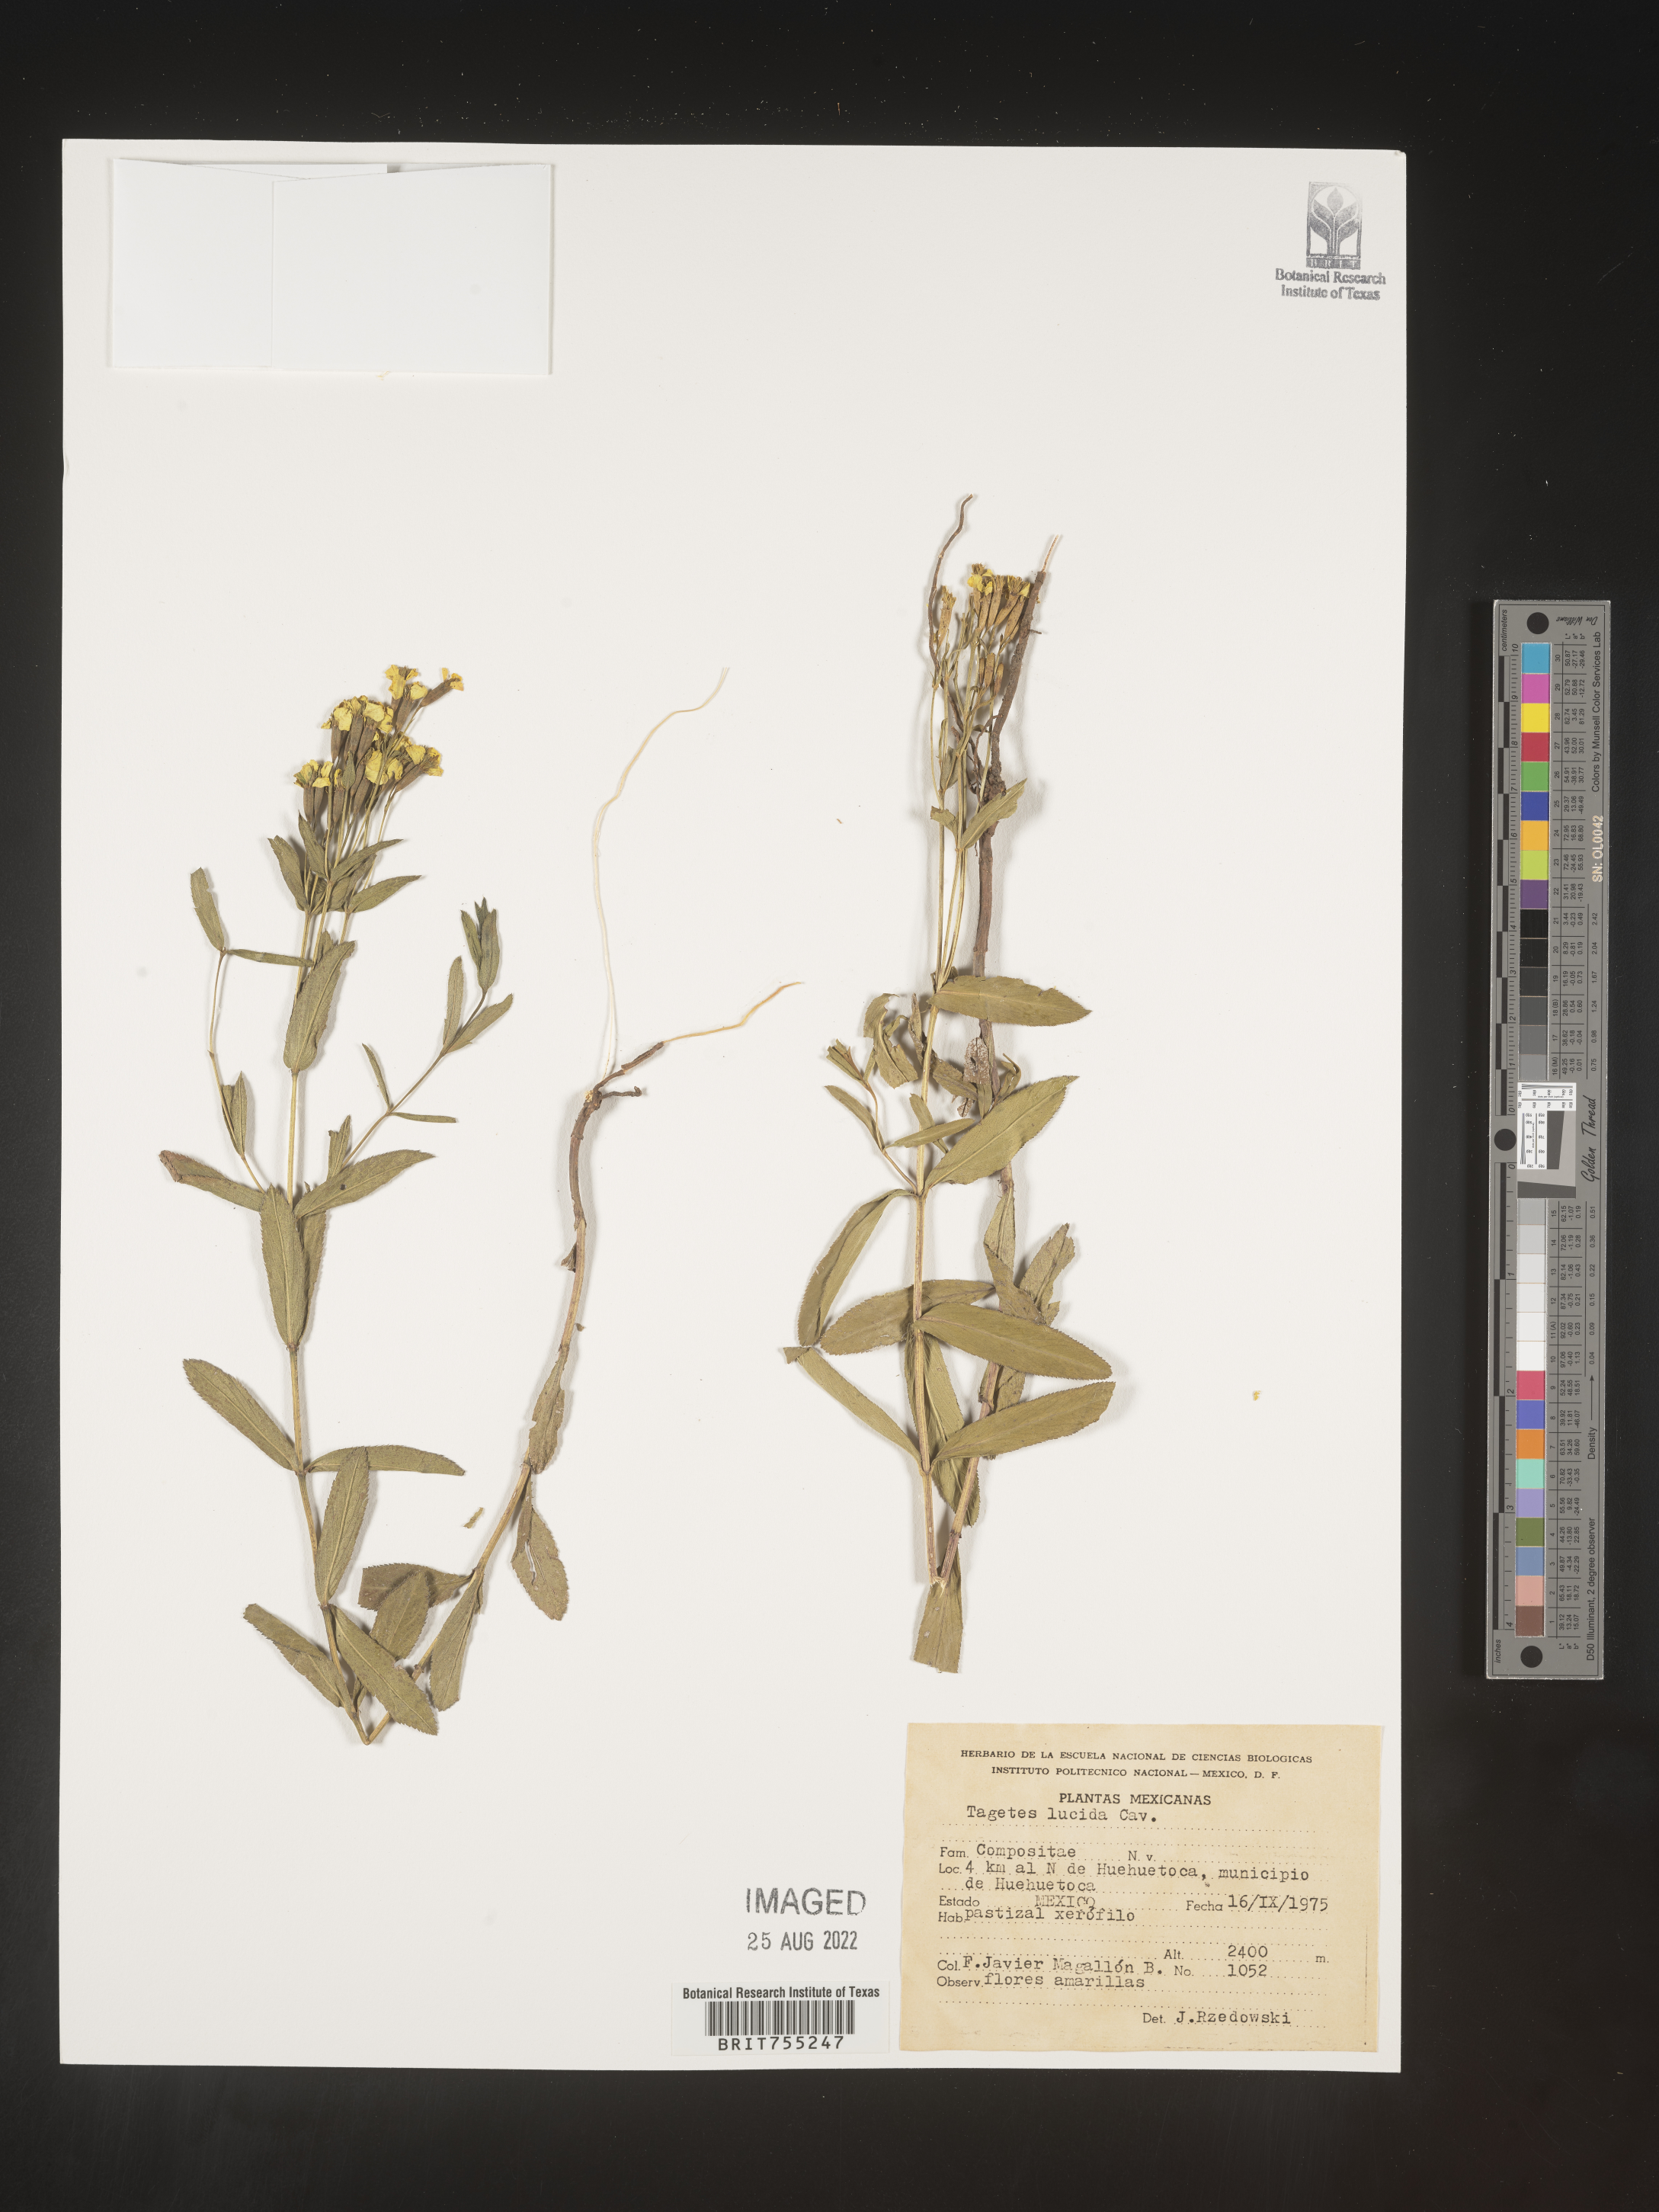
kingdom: Plantae
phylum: Tracheophyta
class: Magnoliopsida
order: Asterales
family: Asteraceae
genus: Tagetes
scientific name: Tagetes lucida
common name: Sweetscented marigold
